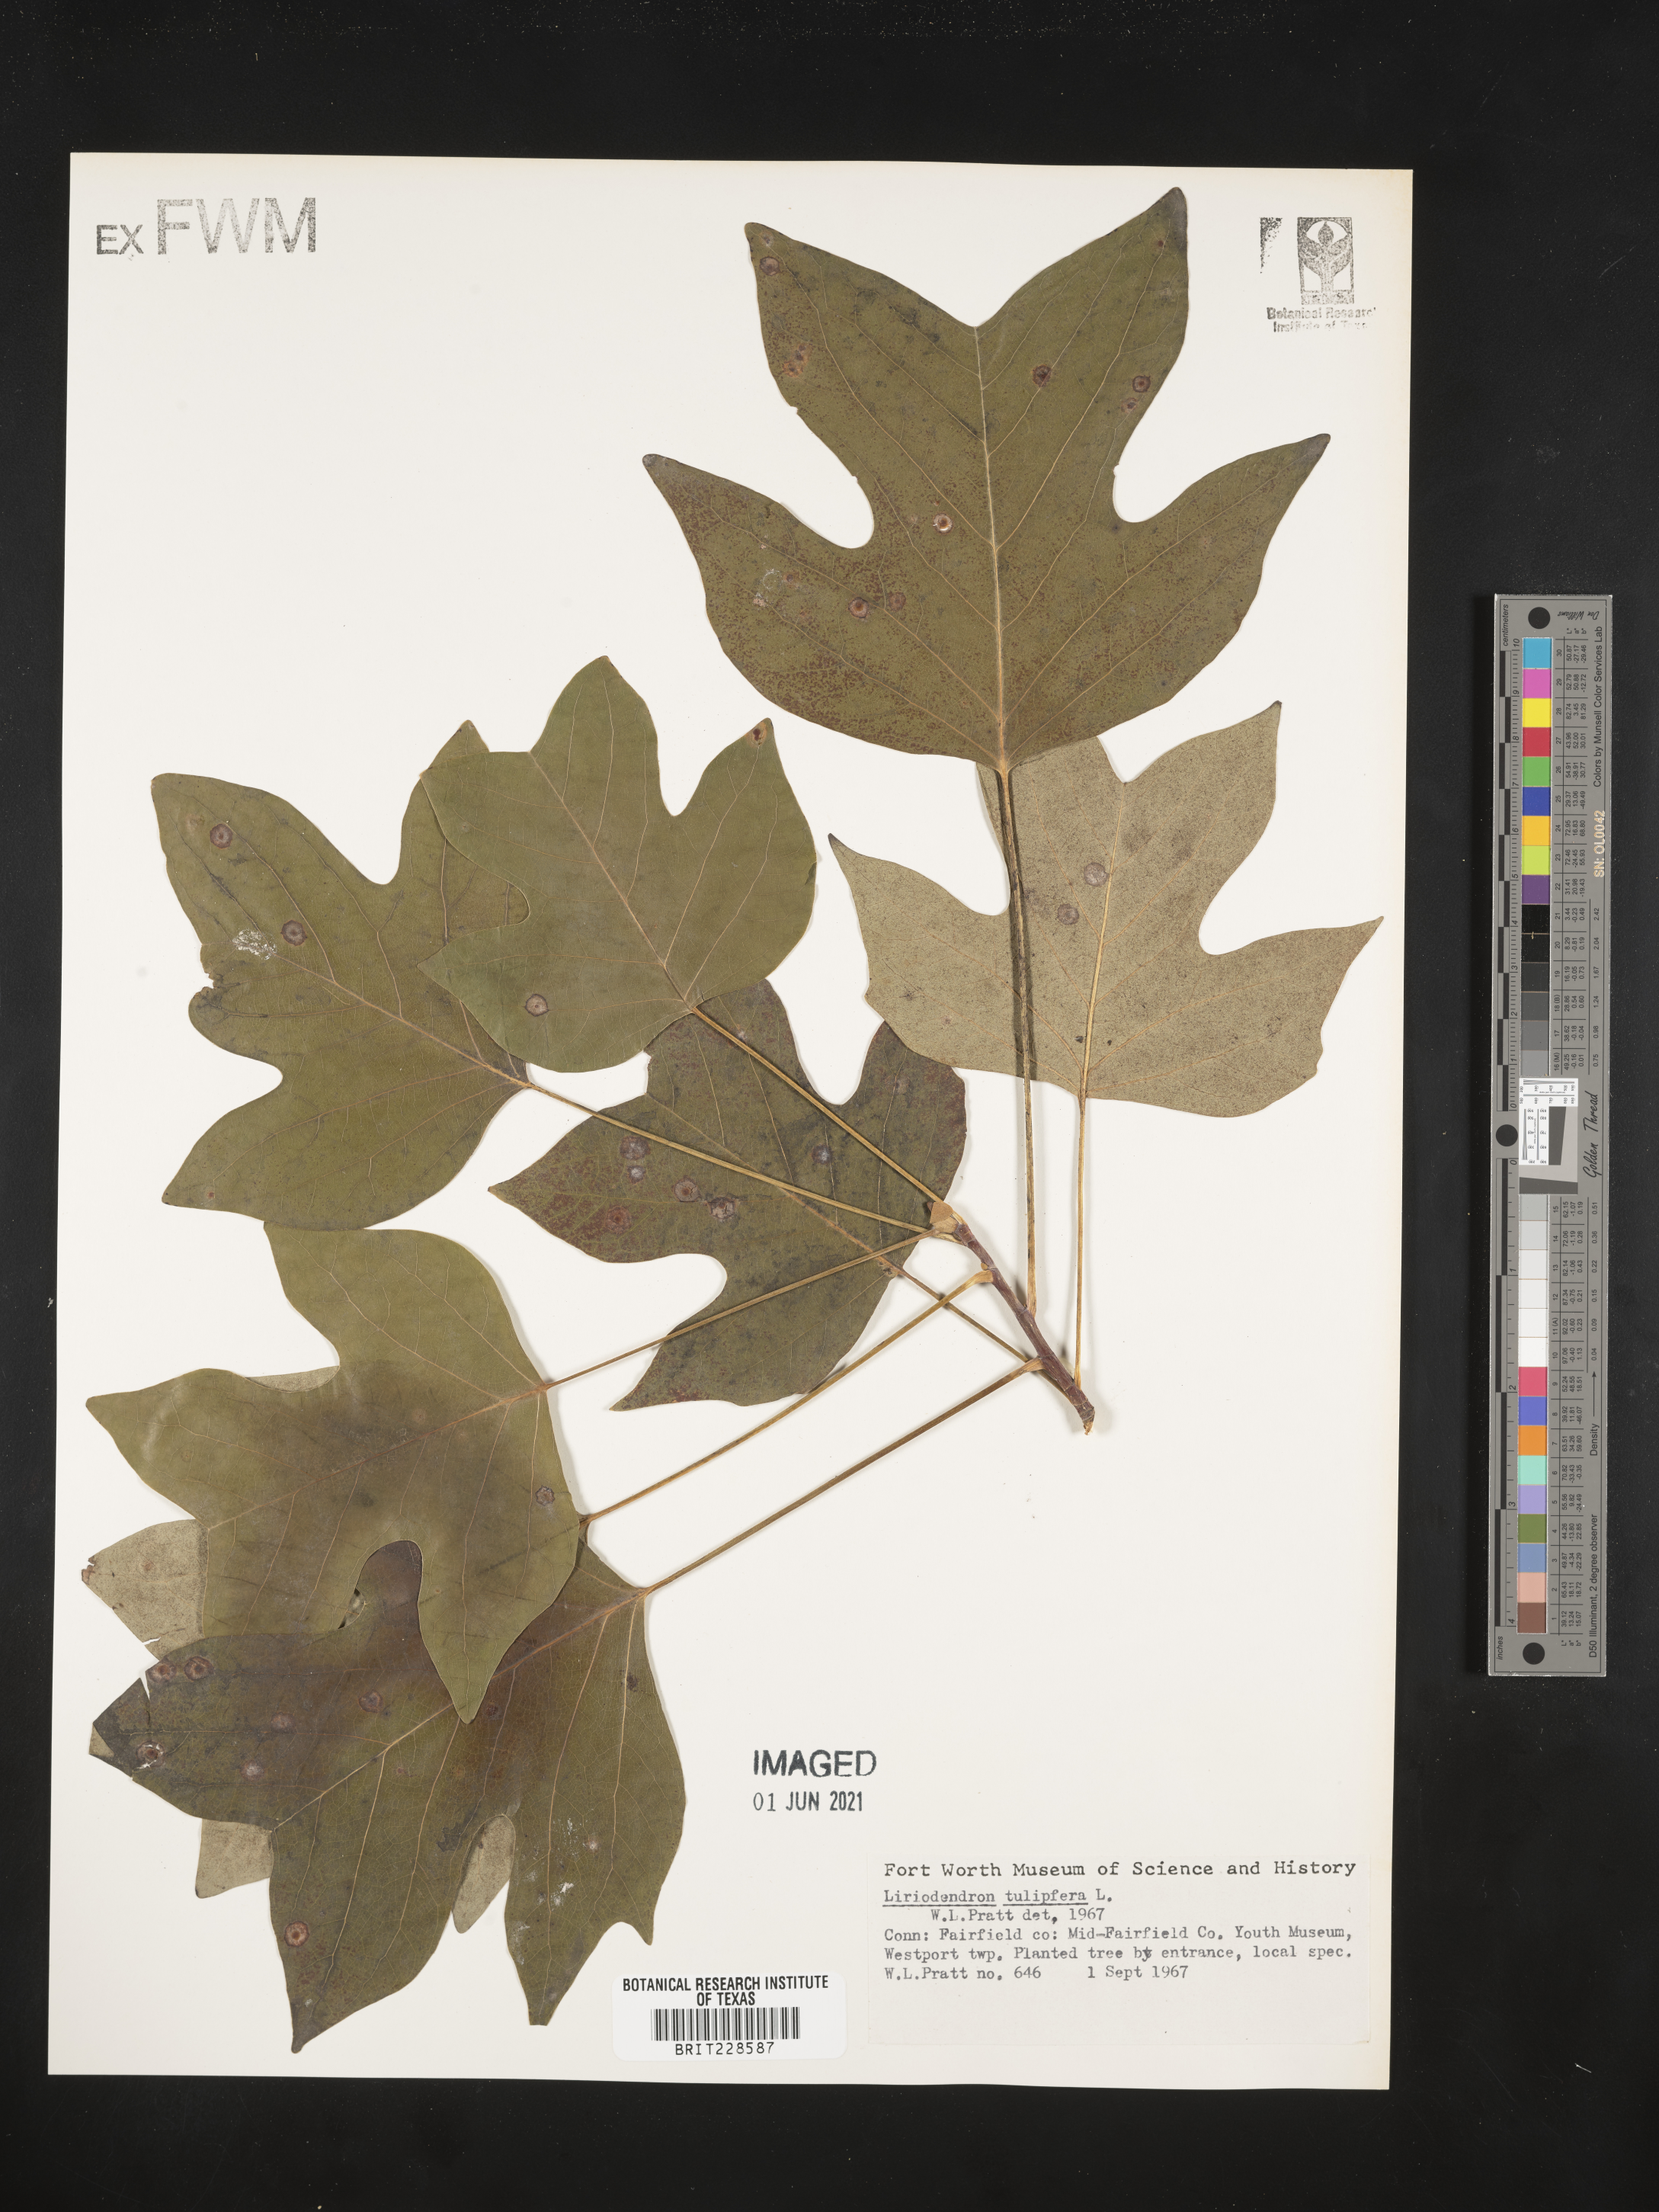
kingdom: Plantae
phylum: Tracheophyta
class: Magnoliopsida
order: Magnoliales
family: Magnoliaceae
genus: Liriodendron
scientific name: Liriodendron tulipifera
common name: Tulip tree
